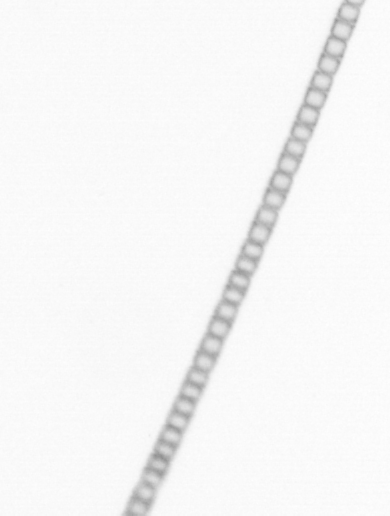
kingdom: Chromista
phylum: Ochrophyta
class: Bacillariophyceae
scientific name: Bacillariophyceae
